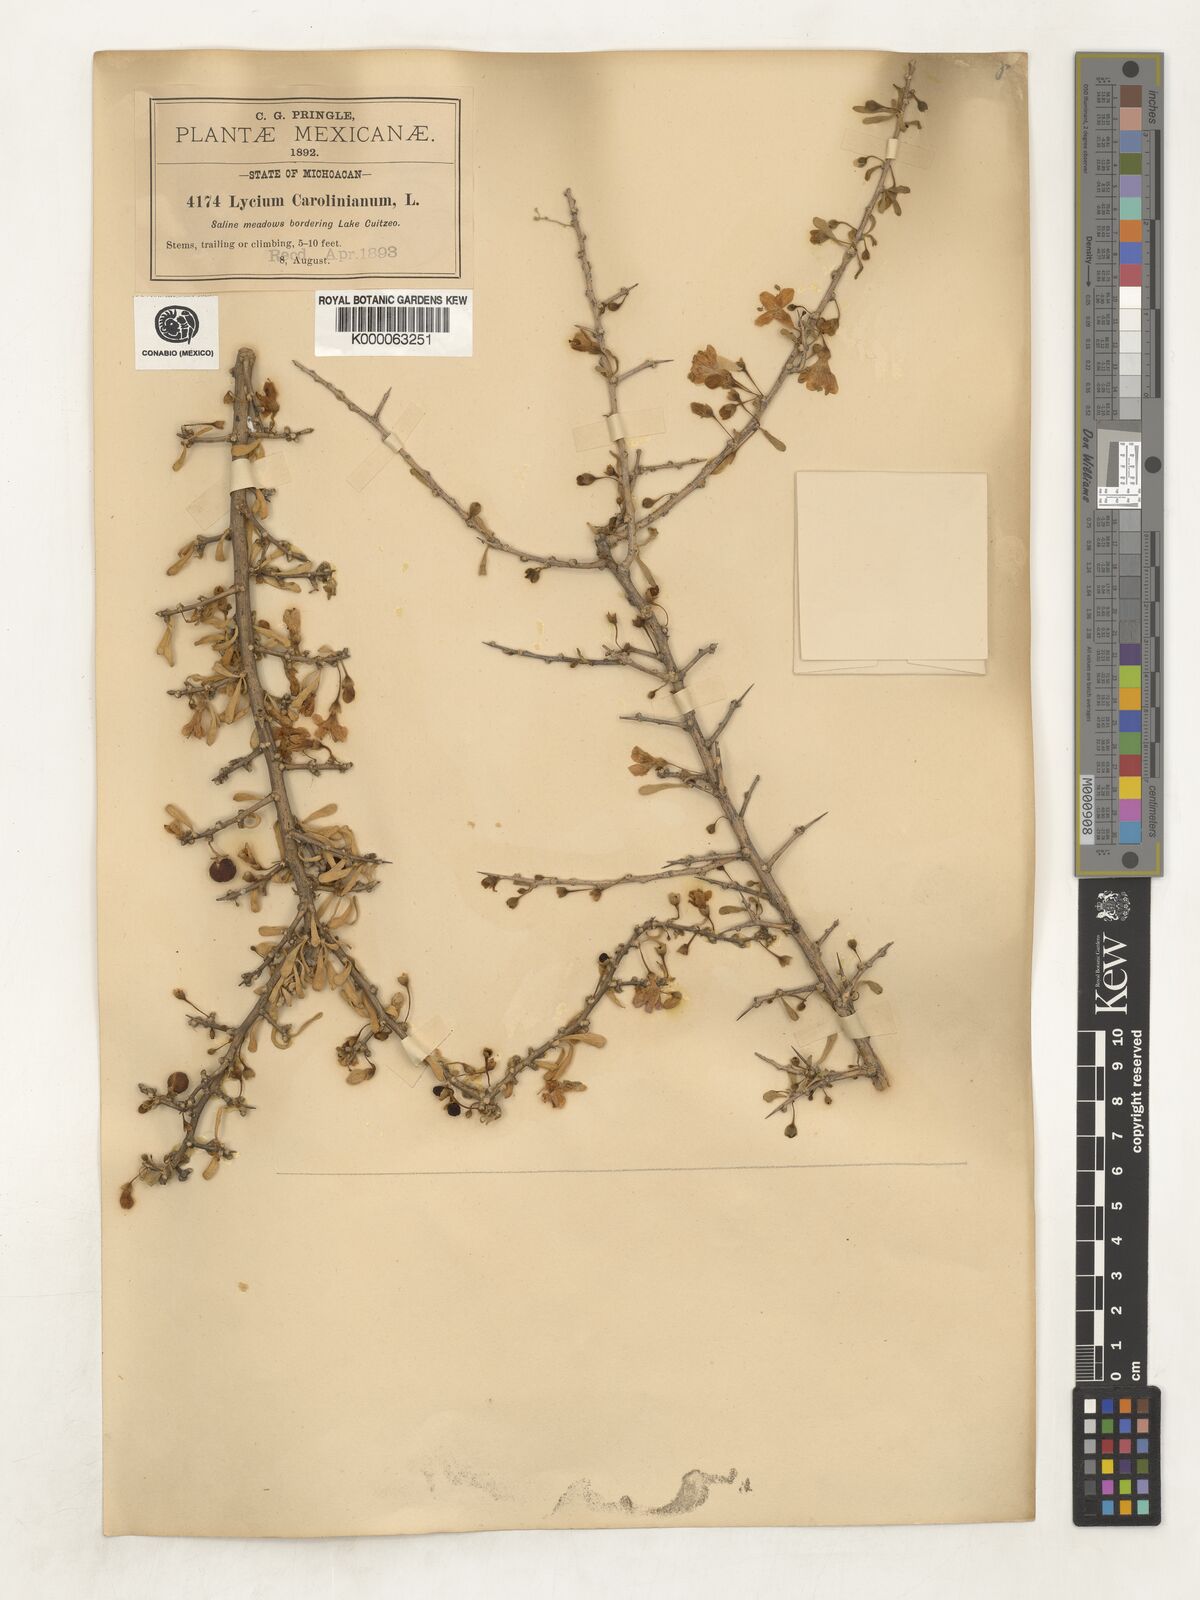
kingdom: Plantae
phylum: Tracheophyta
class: Magnoliopsida
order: Solanales
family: Solanaceae
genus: Lycium
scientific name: Lycium
